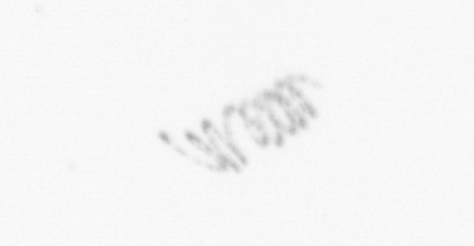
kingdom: Chromista
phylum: Ochrophyta
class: Bacillariophyceae
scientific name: Bacillariophyceae
